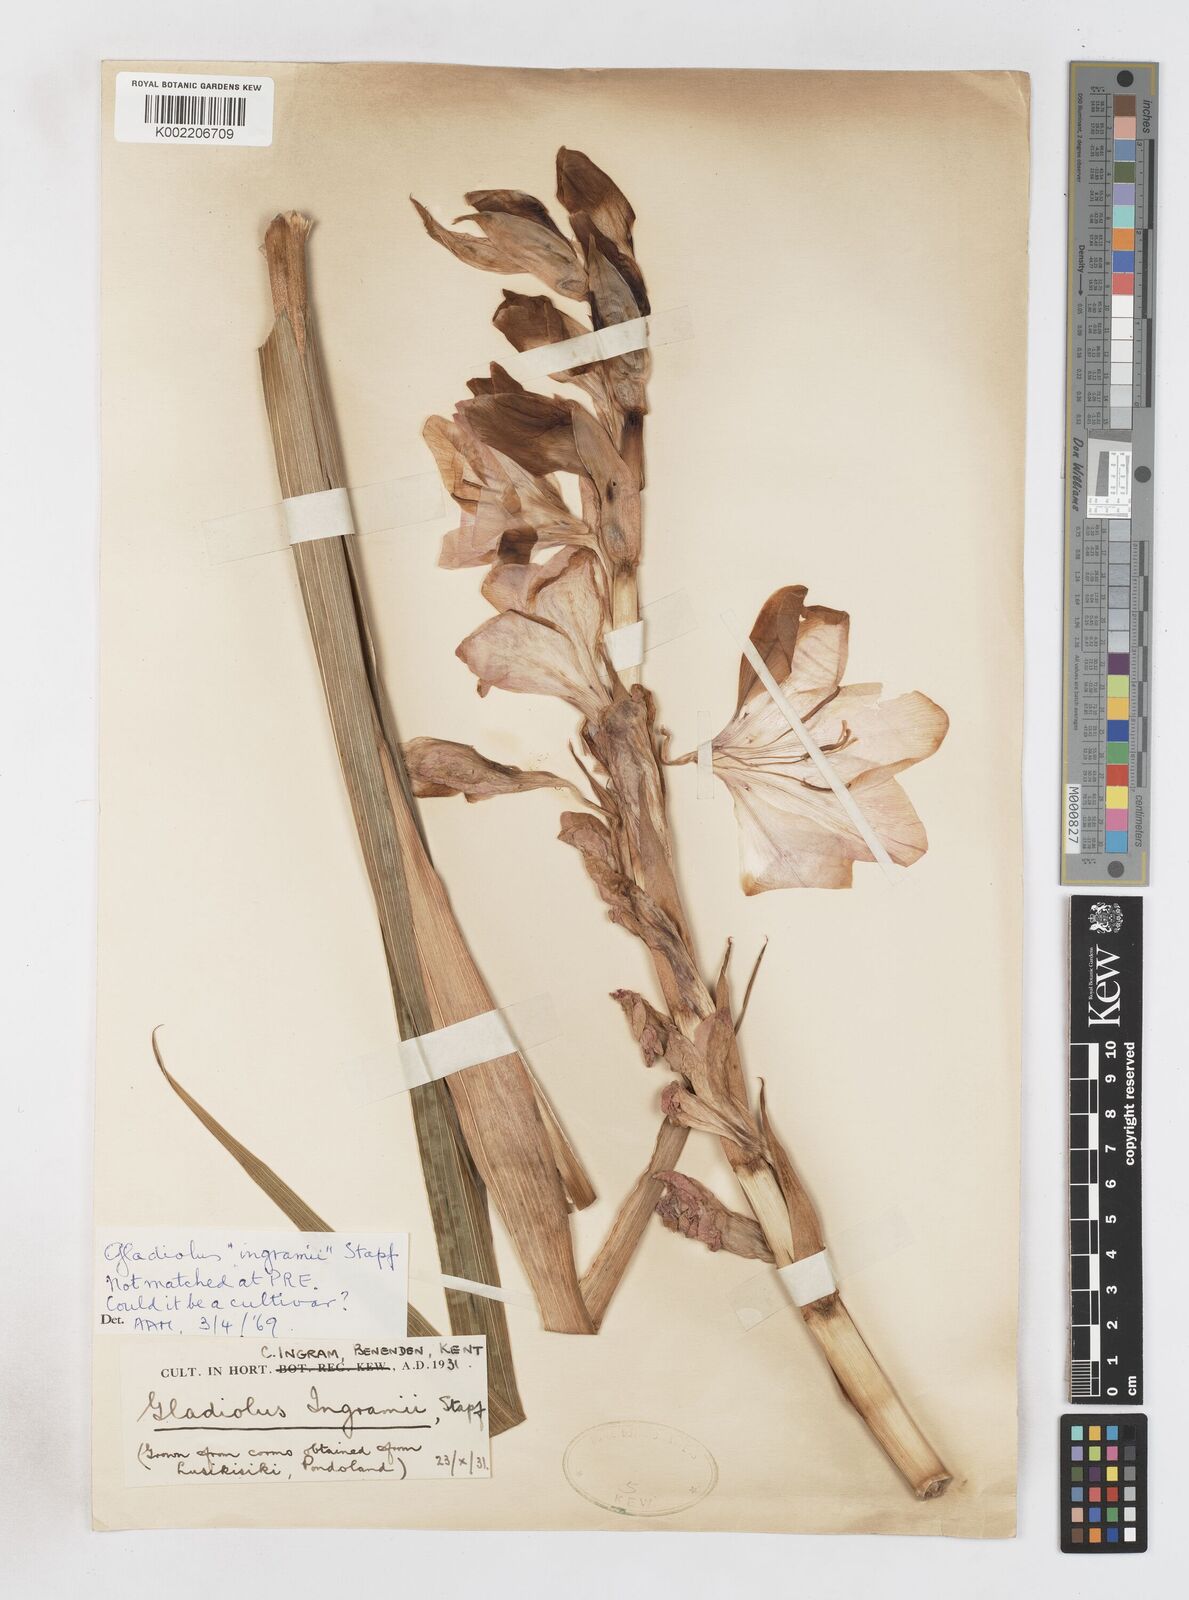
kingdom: Plantae
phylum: Tracheophyta
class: Liliopsida
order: Asparagales
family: Iridaceae
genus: Gladiolus
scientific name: Gladiolus
